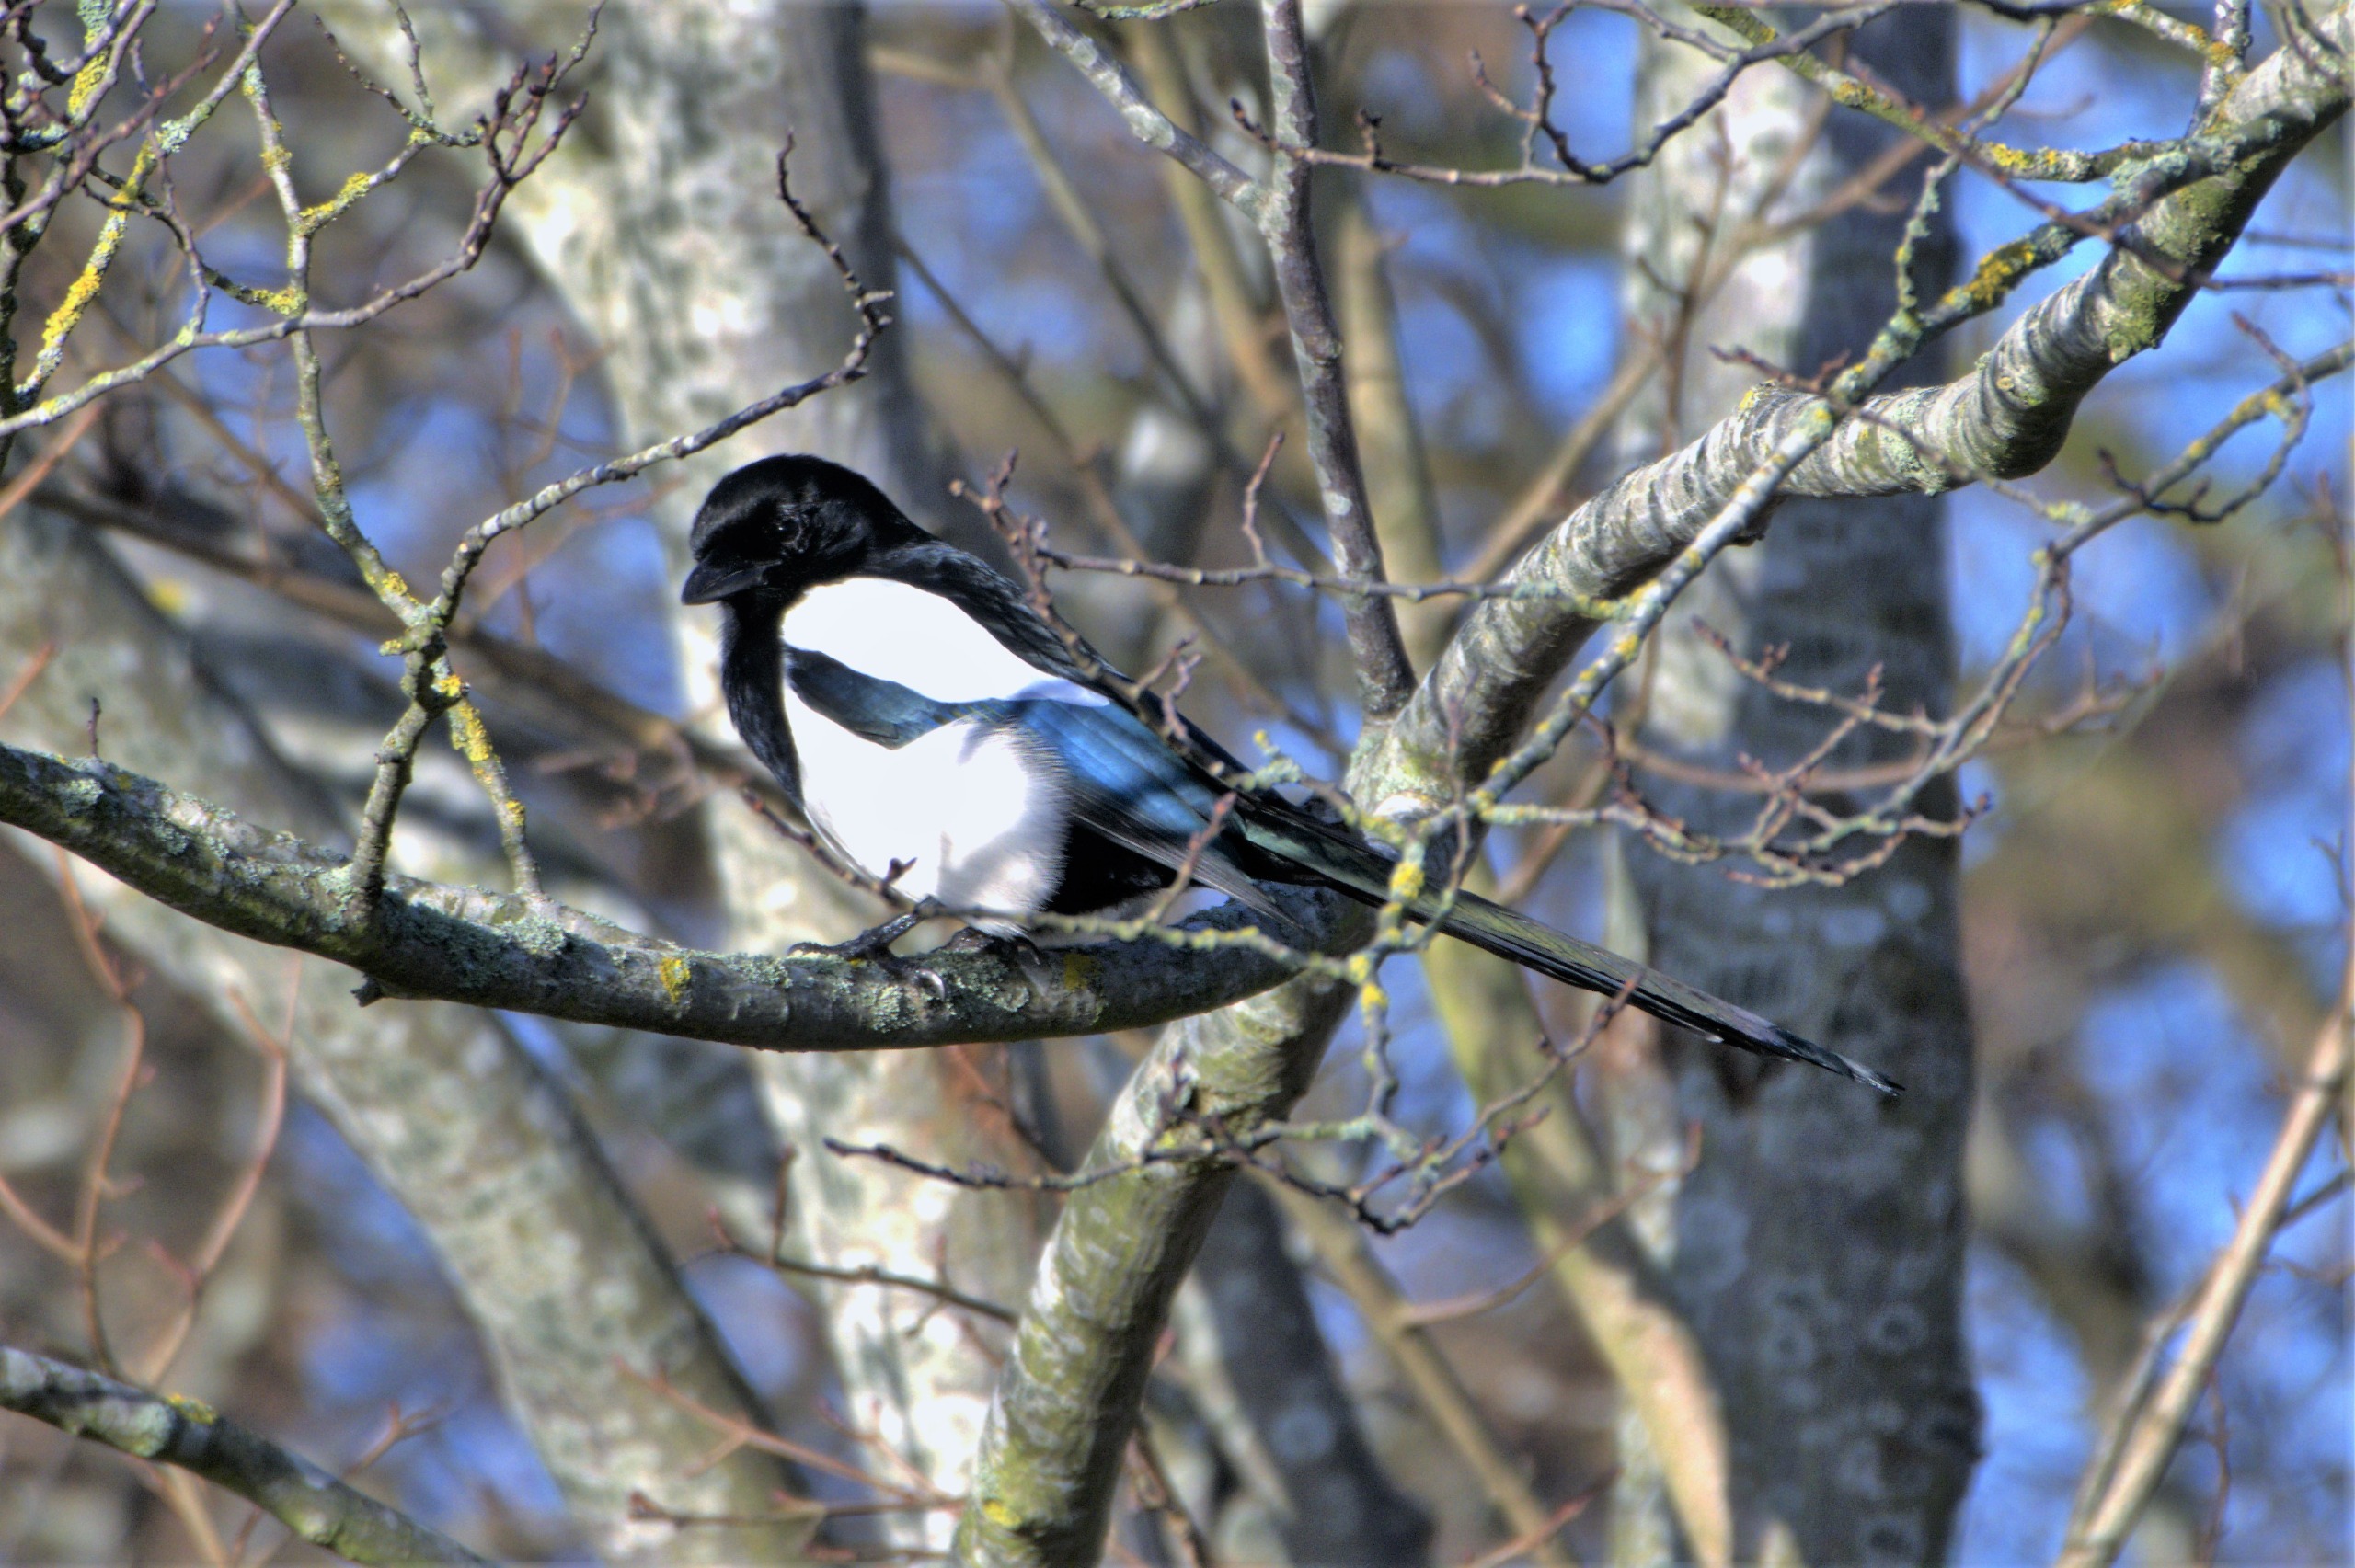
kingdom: Animalia
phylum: Chordata
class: Aves
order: Passeriformes
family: Corvidae
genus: Pica
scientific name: Pica pica
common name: Husskade
